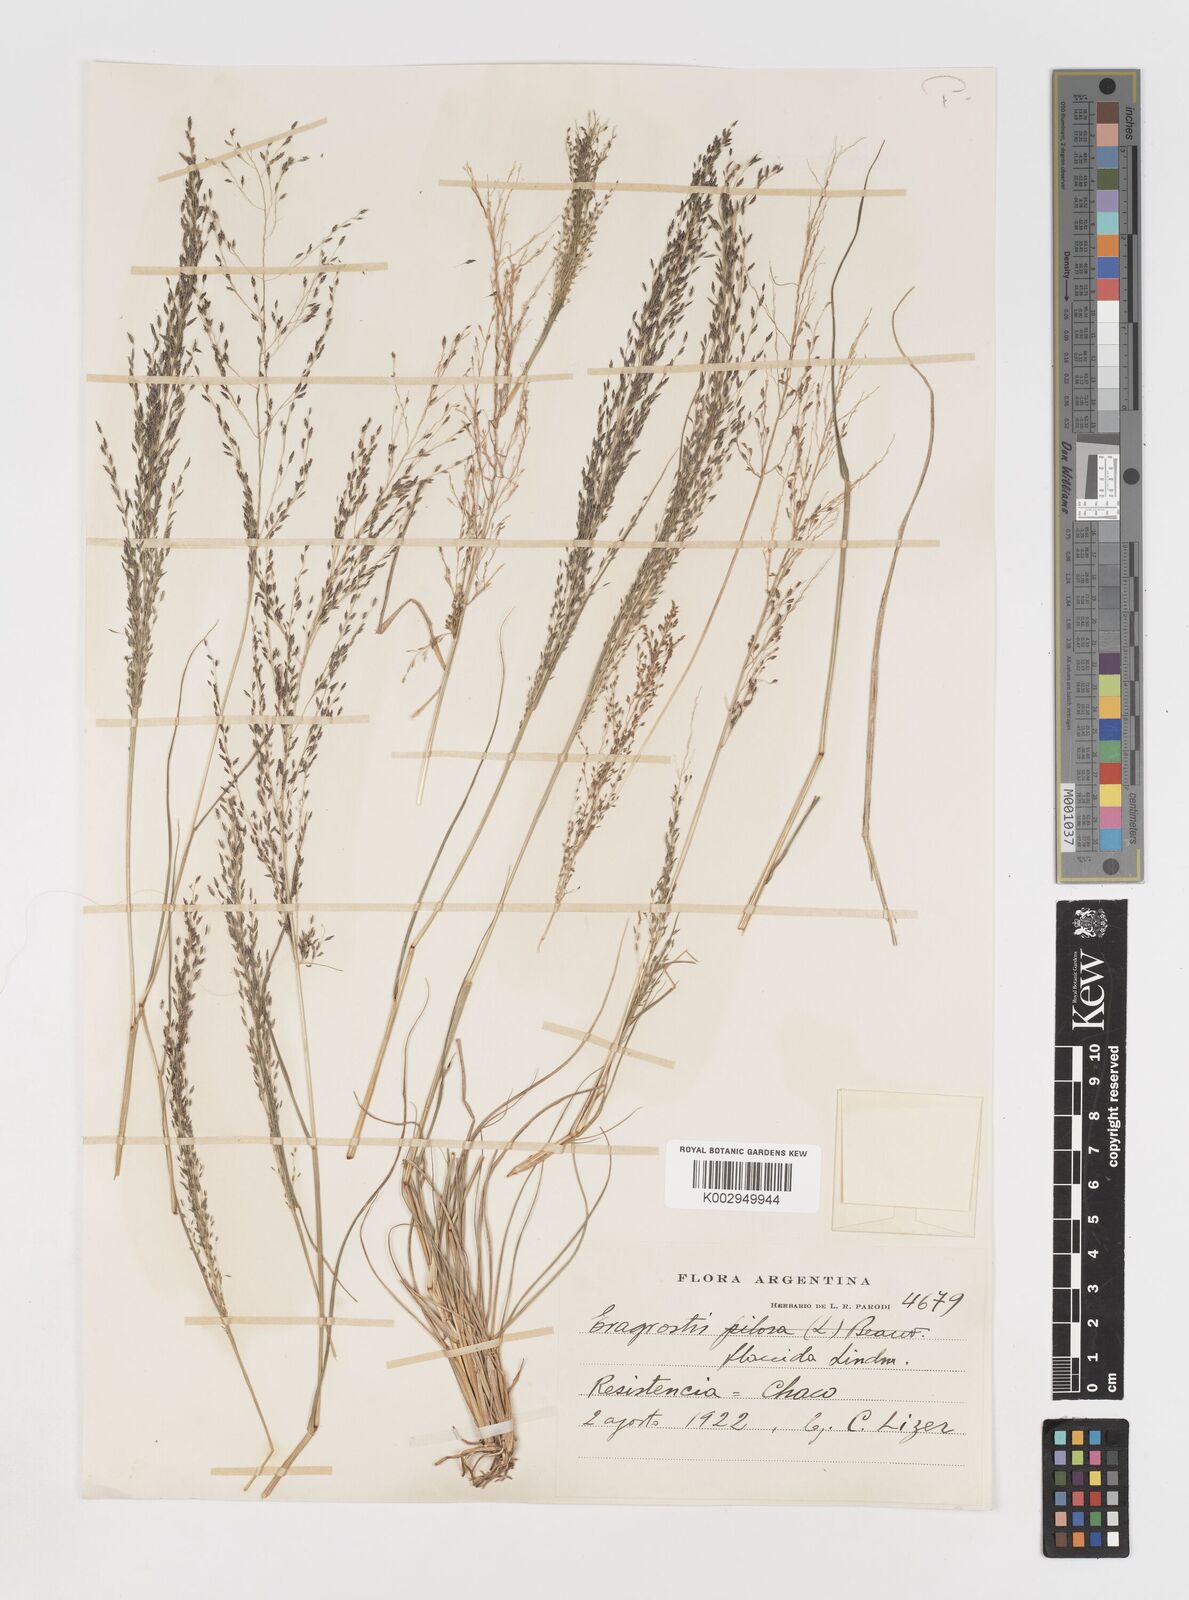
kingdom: Plantae
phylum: Tracheophyta
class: Liliopsida
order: Poales
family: Poaceae
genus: Eragrostis
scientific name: Eragrostis lugens
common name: Mourning love grass
